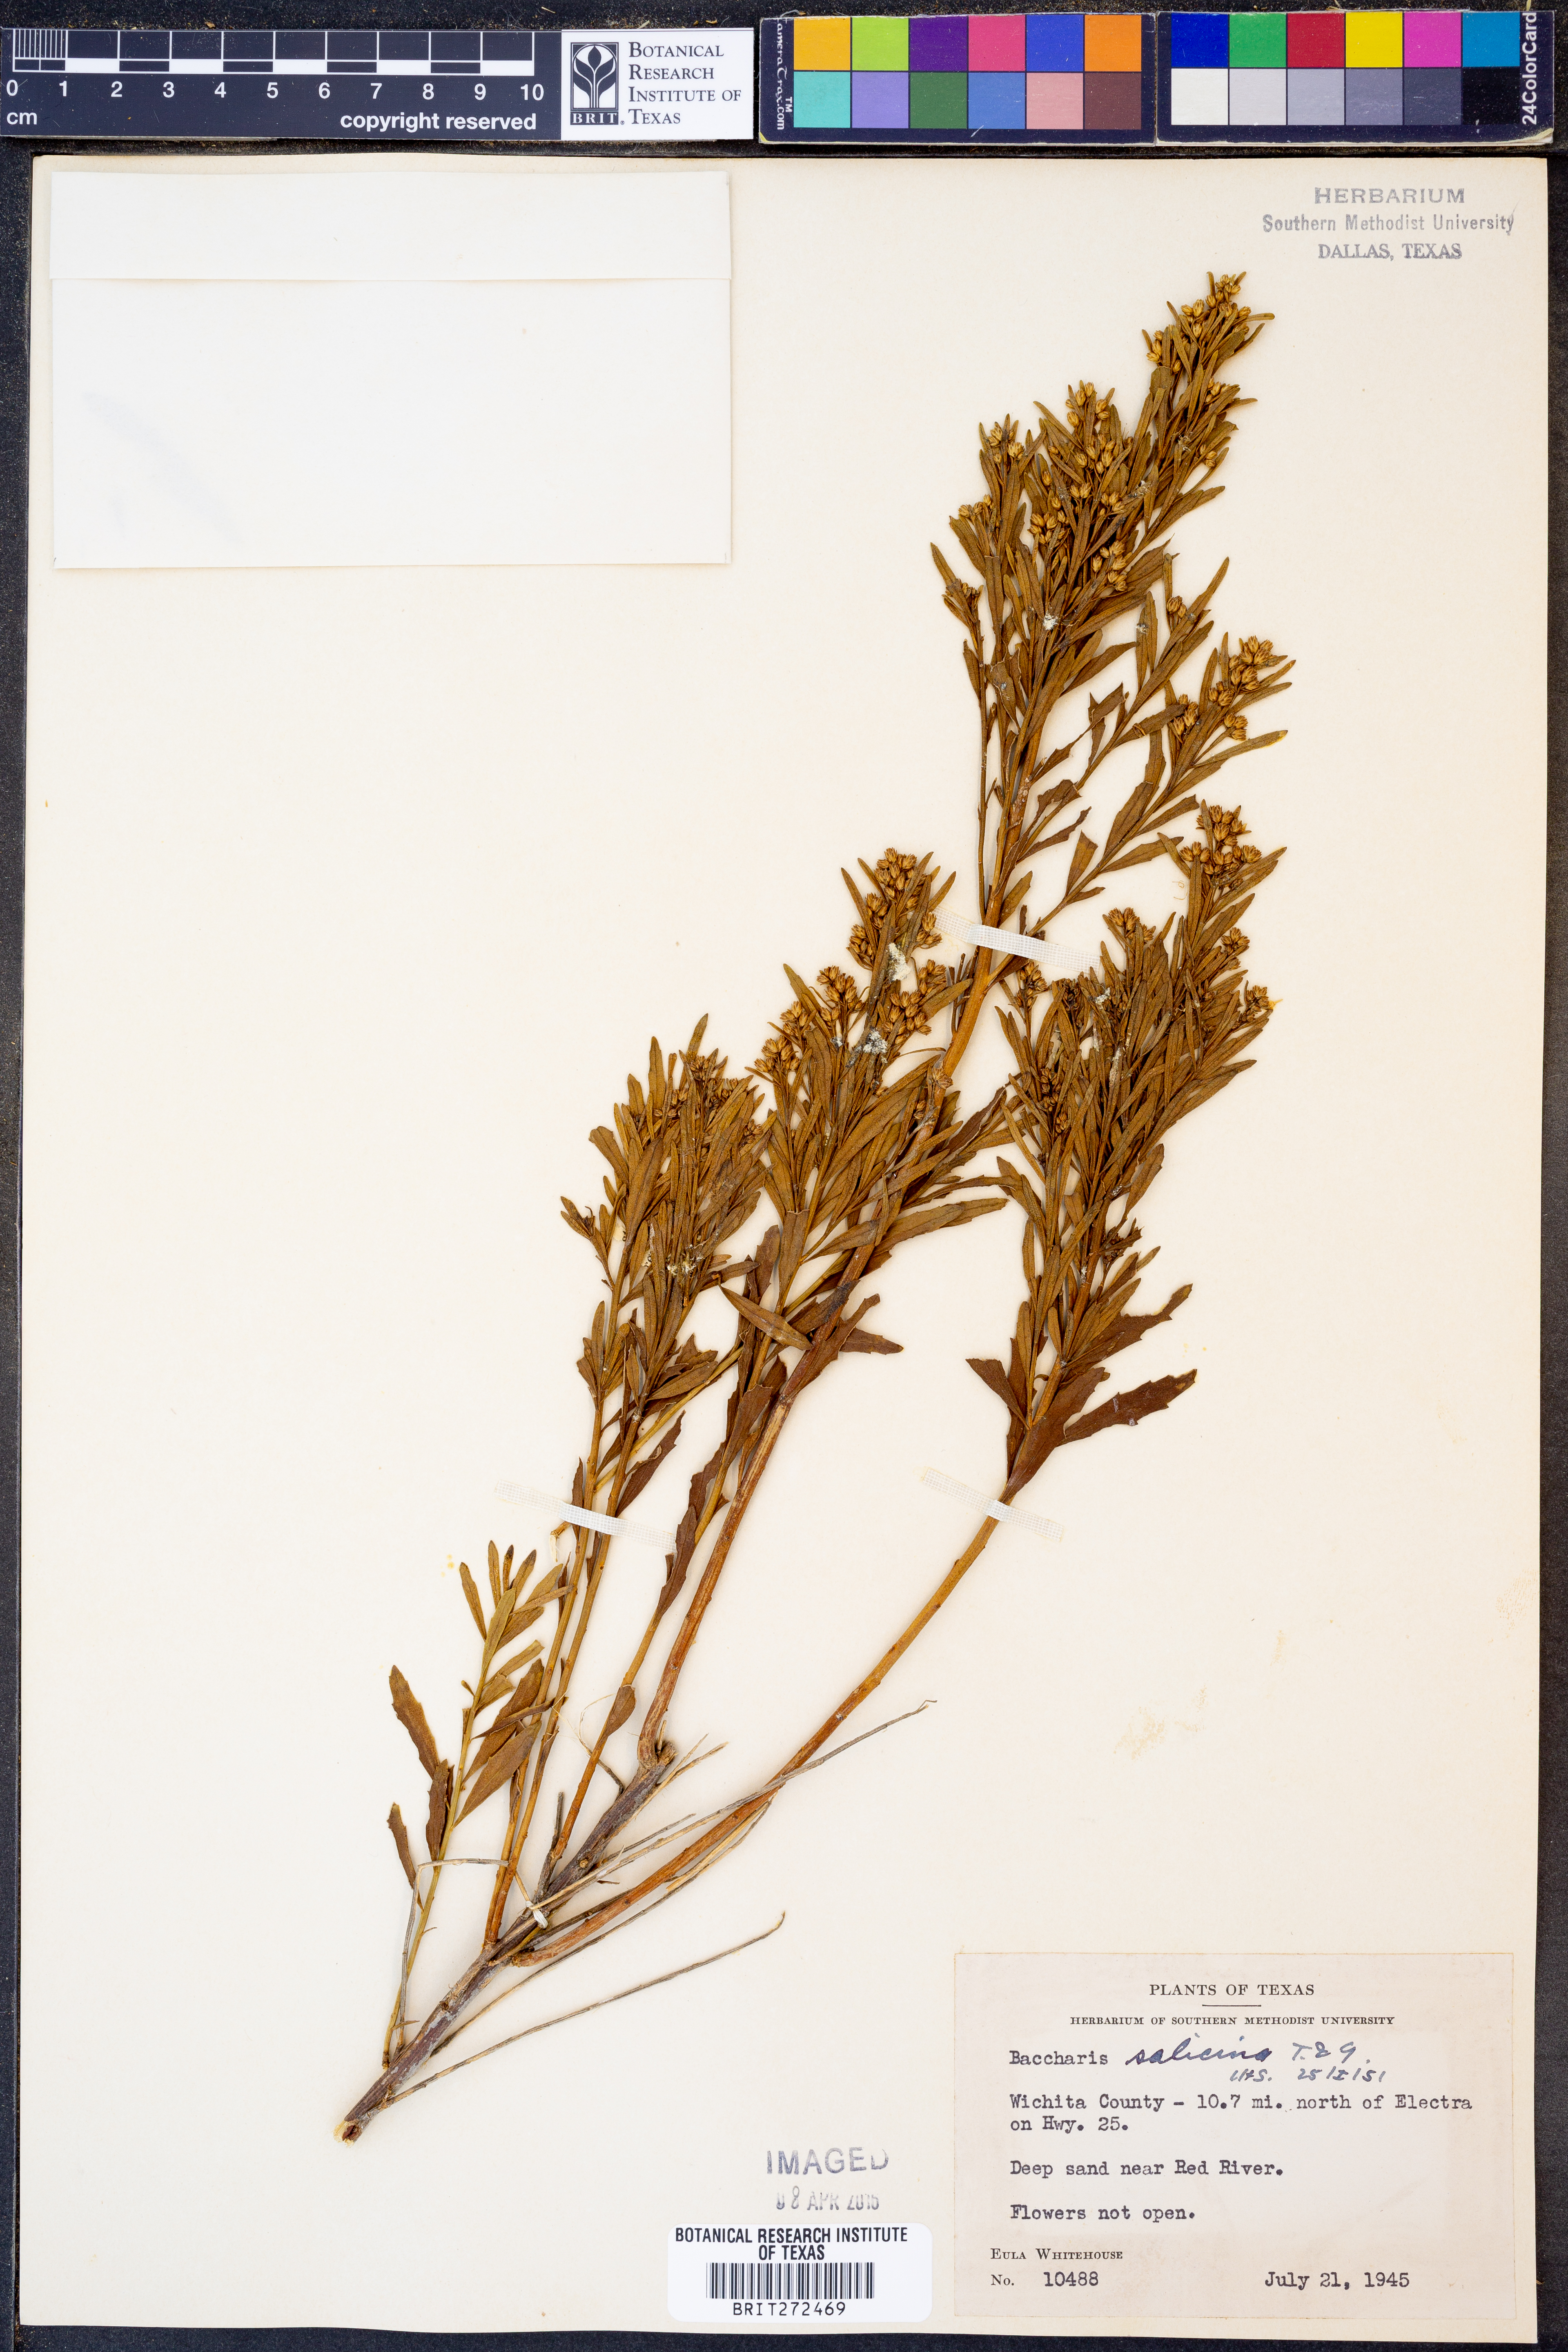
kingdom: Plantae
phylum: Tracheophyta
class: Magnoliopsida
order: Asterales
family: Asteraceae
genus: Baccharis
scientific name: Baccharis salicina
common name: Willow baccharis
